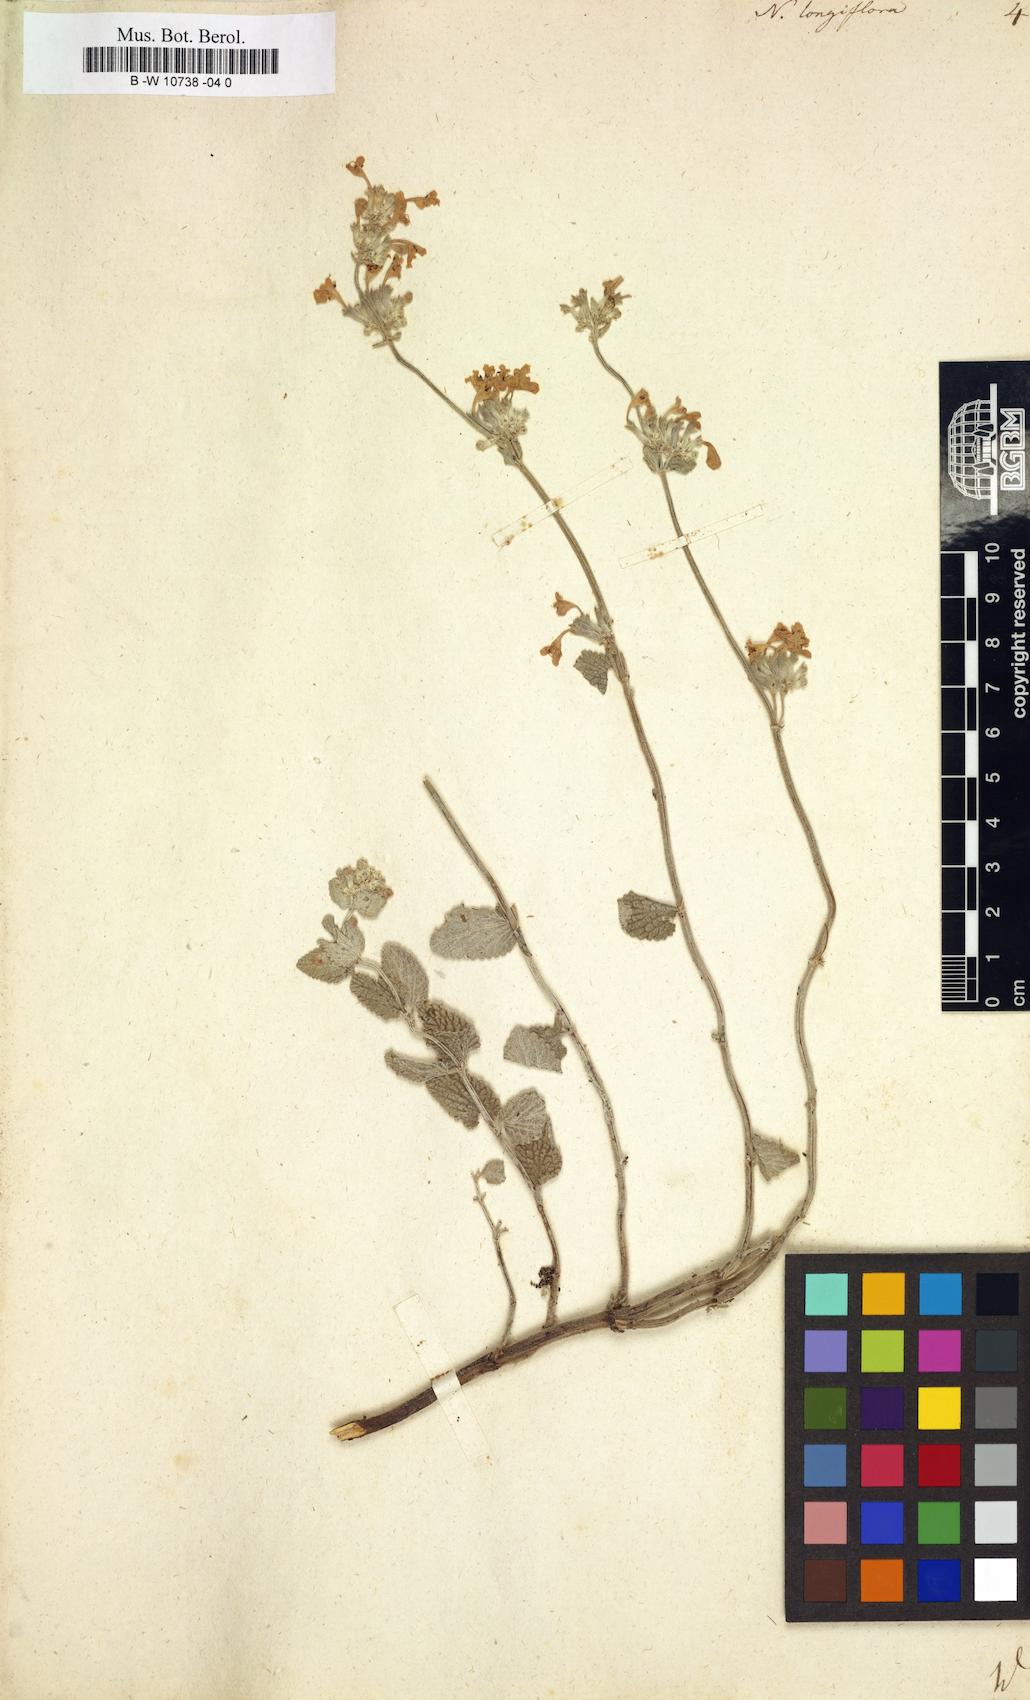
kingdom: Plantae
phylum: Tracheophyta
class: Magnoliopsida
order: Lamiales
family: Lamiaceae
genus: Nepeta
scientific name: Nepeta longiflora
